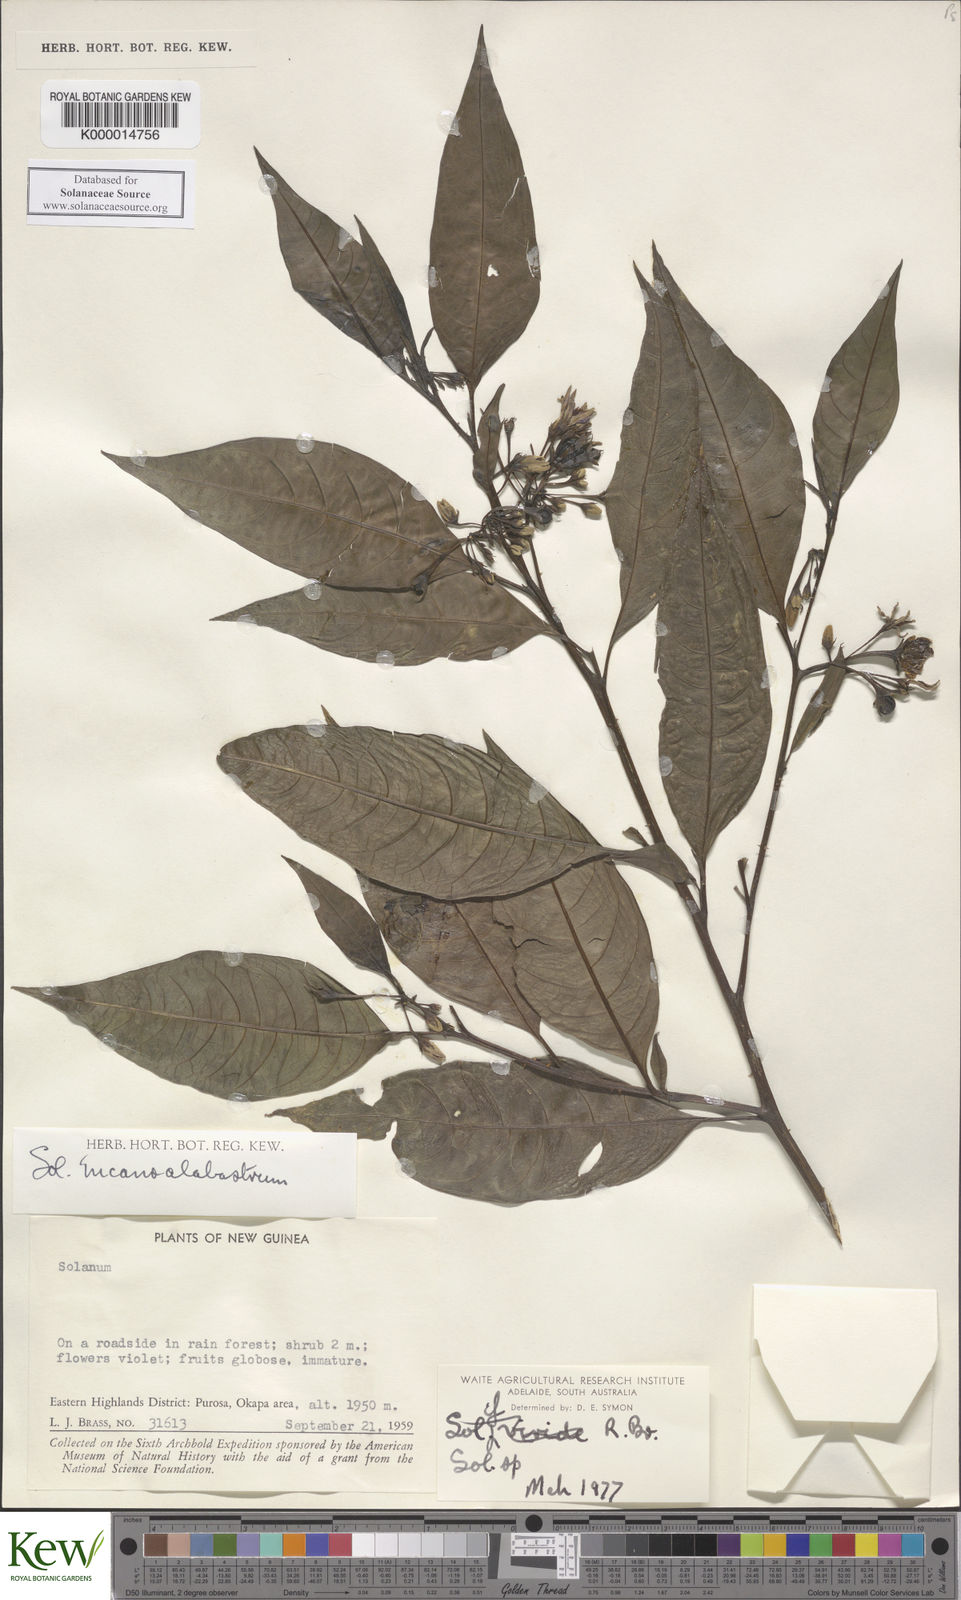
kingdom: Plantae
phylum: Tracheophyta
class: Magnoliopsida
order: Solanales
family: Solanaceae
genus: Solanum
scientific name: Solanum incanoalabastrum
